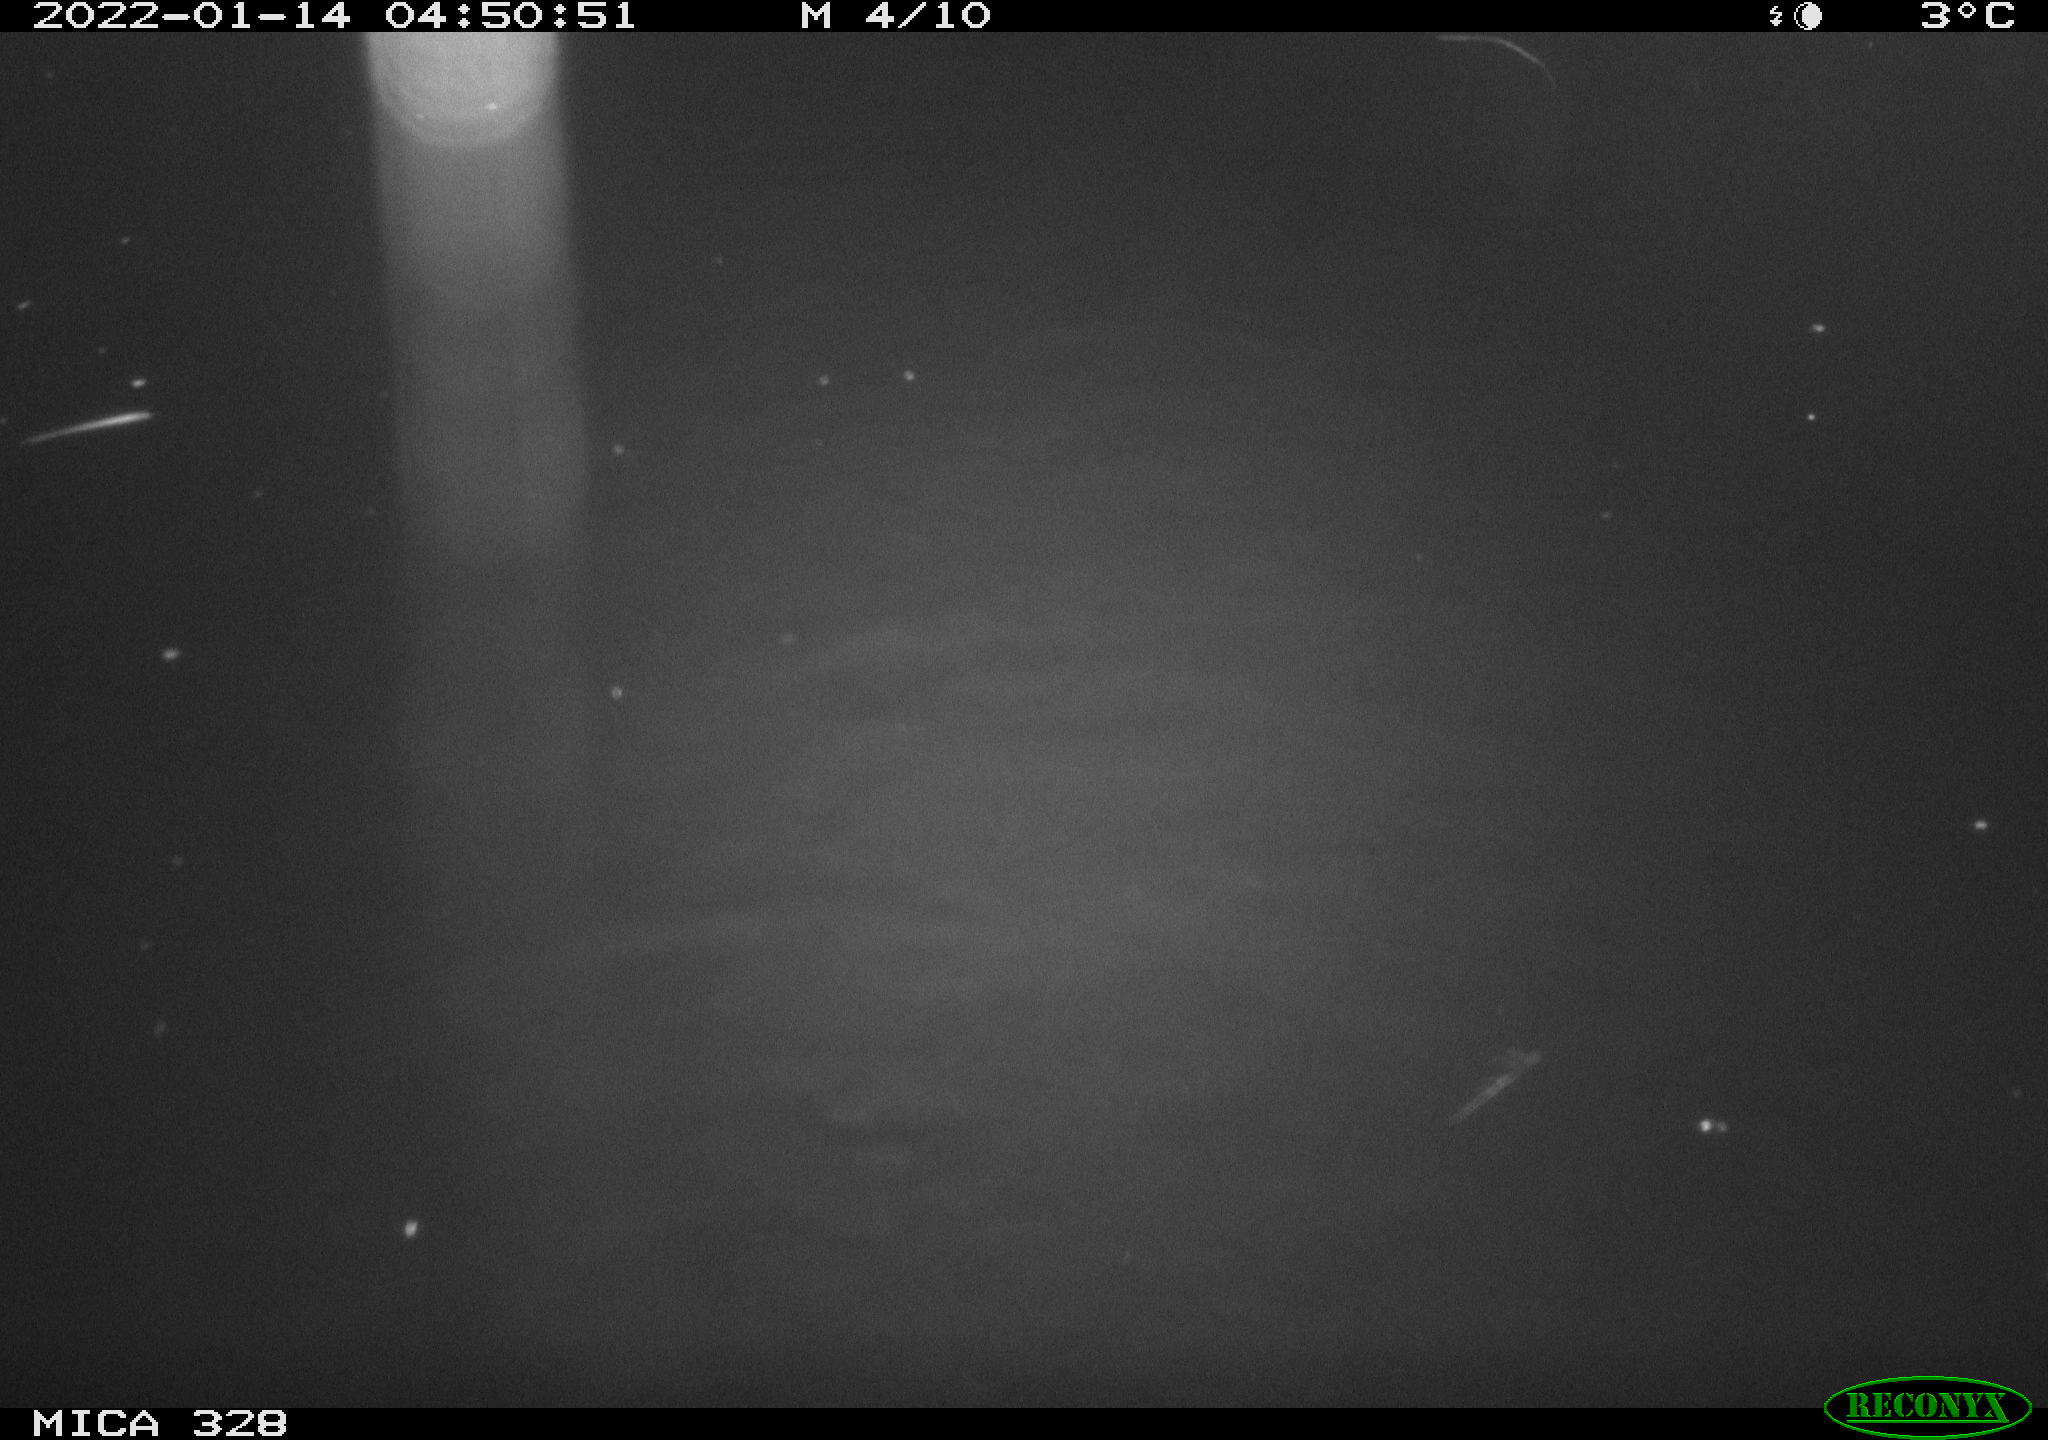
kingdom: Animalia
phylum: Chordata
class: Mammalia
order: Rodentia
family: Cricetidae
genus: Ondatra
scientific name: Ondatra zibethicus
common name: Muskrat
